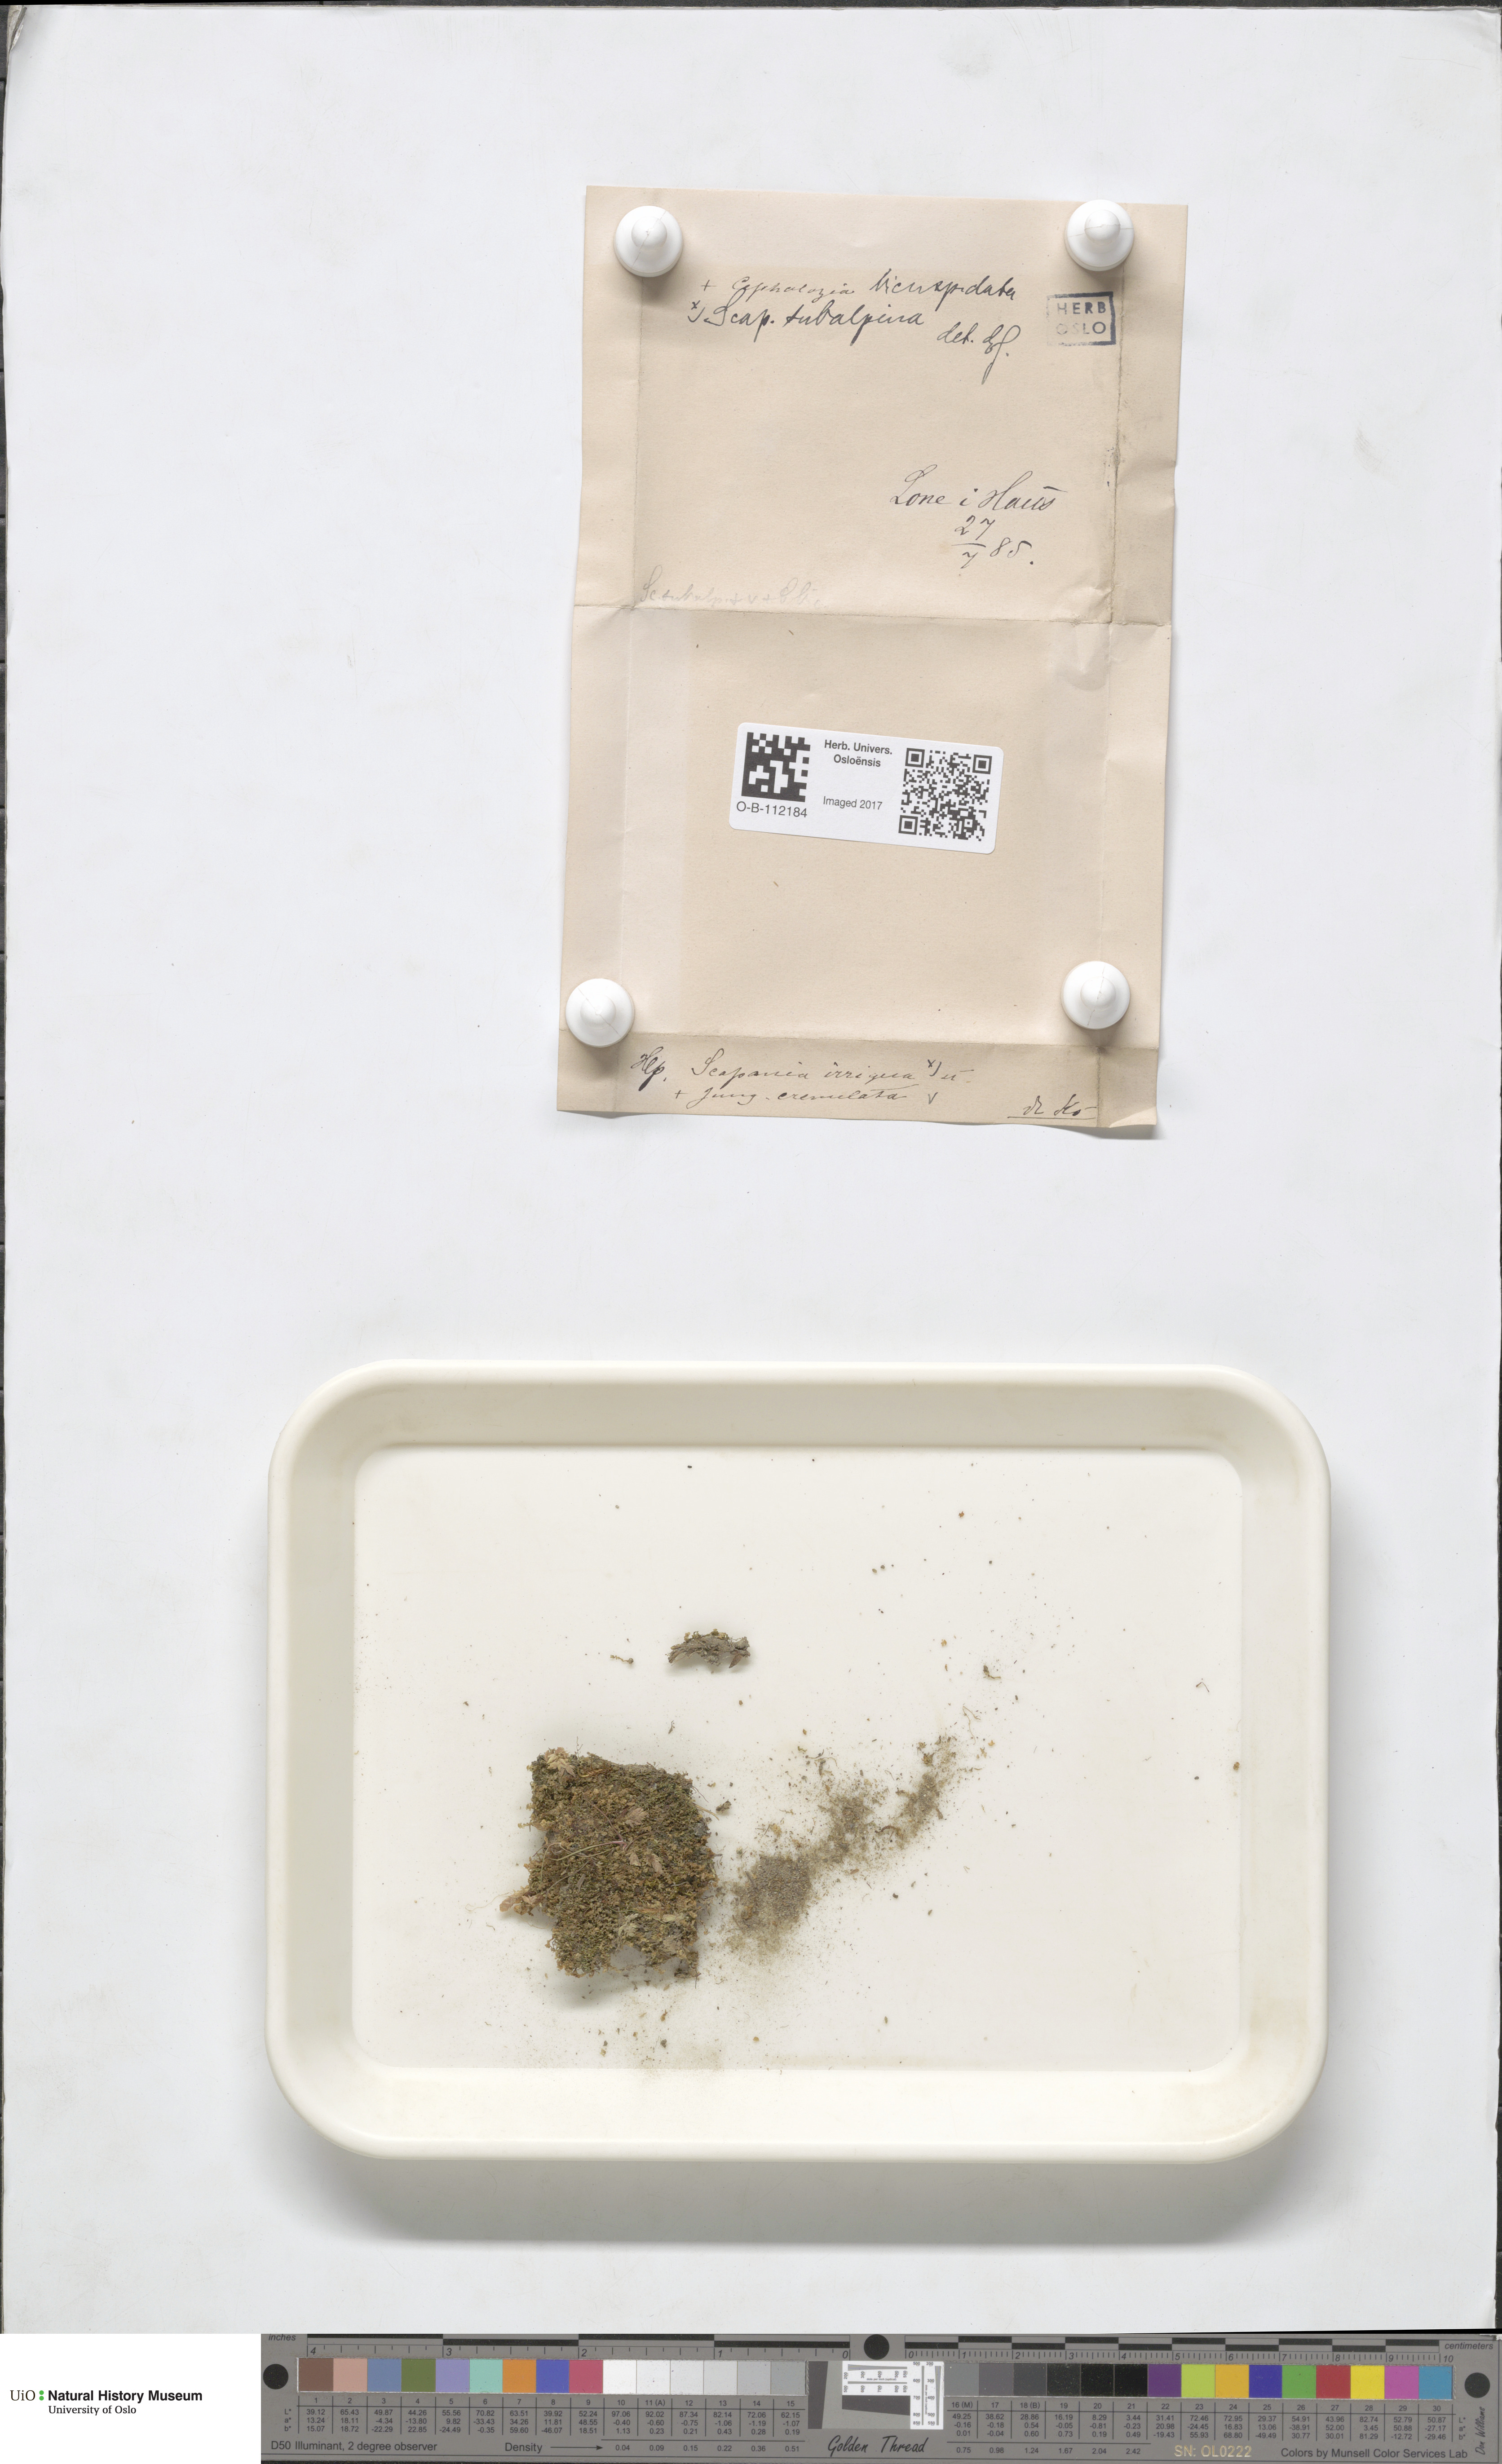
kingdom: Plantae
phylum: Marchantiophyta
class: Jungermanniopsida
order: Jungermanniales
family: Scapaniaceae
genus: Scapania
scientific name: Scapania subalpina
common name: Subalpine earwort
